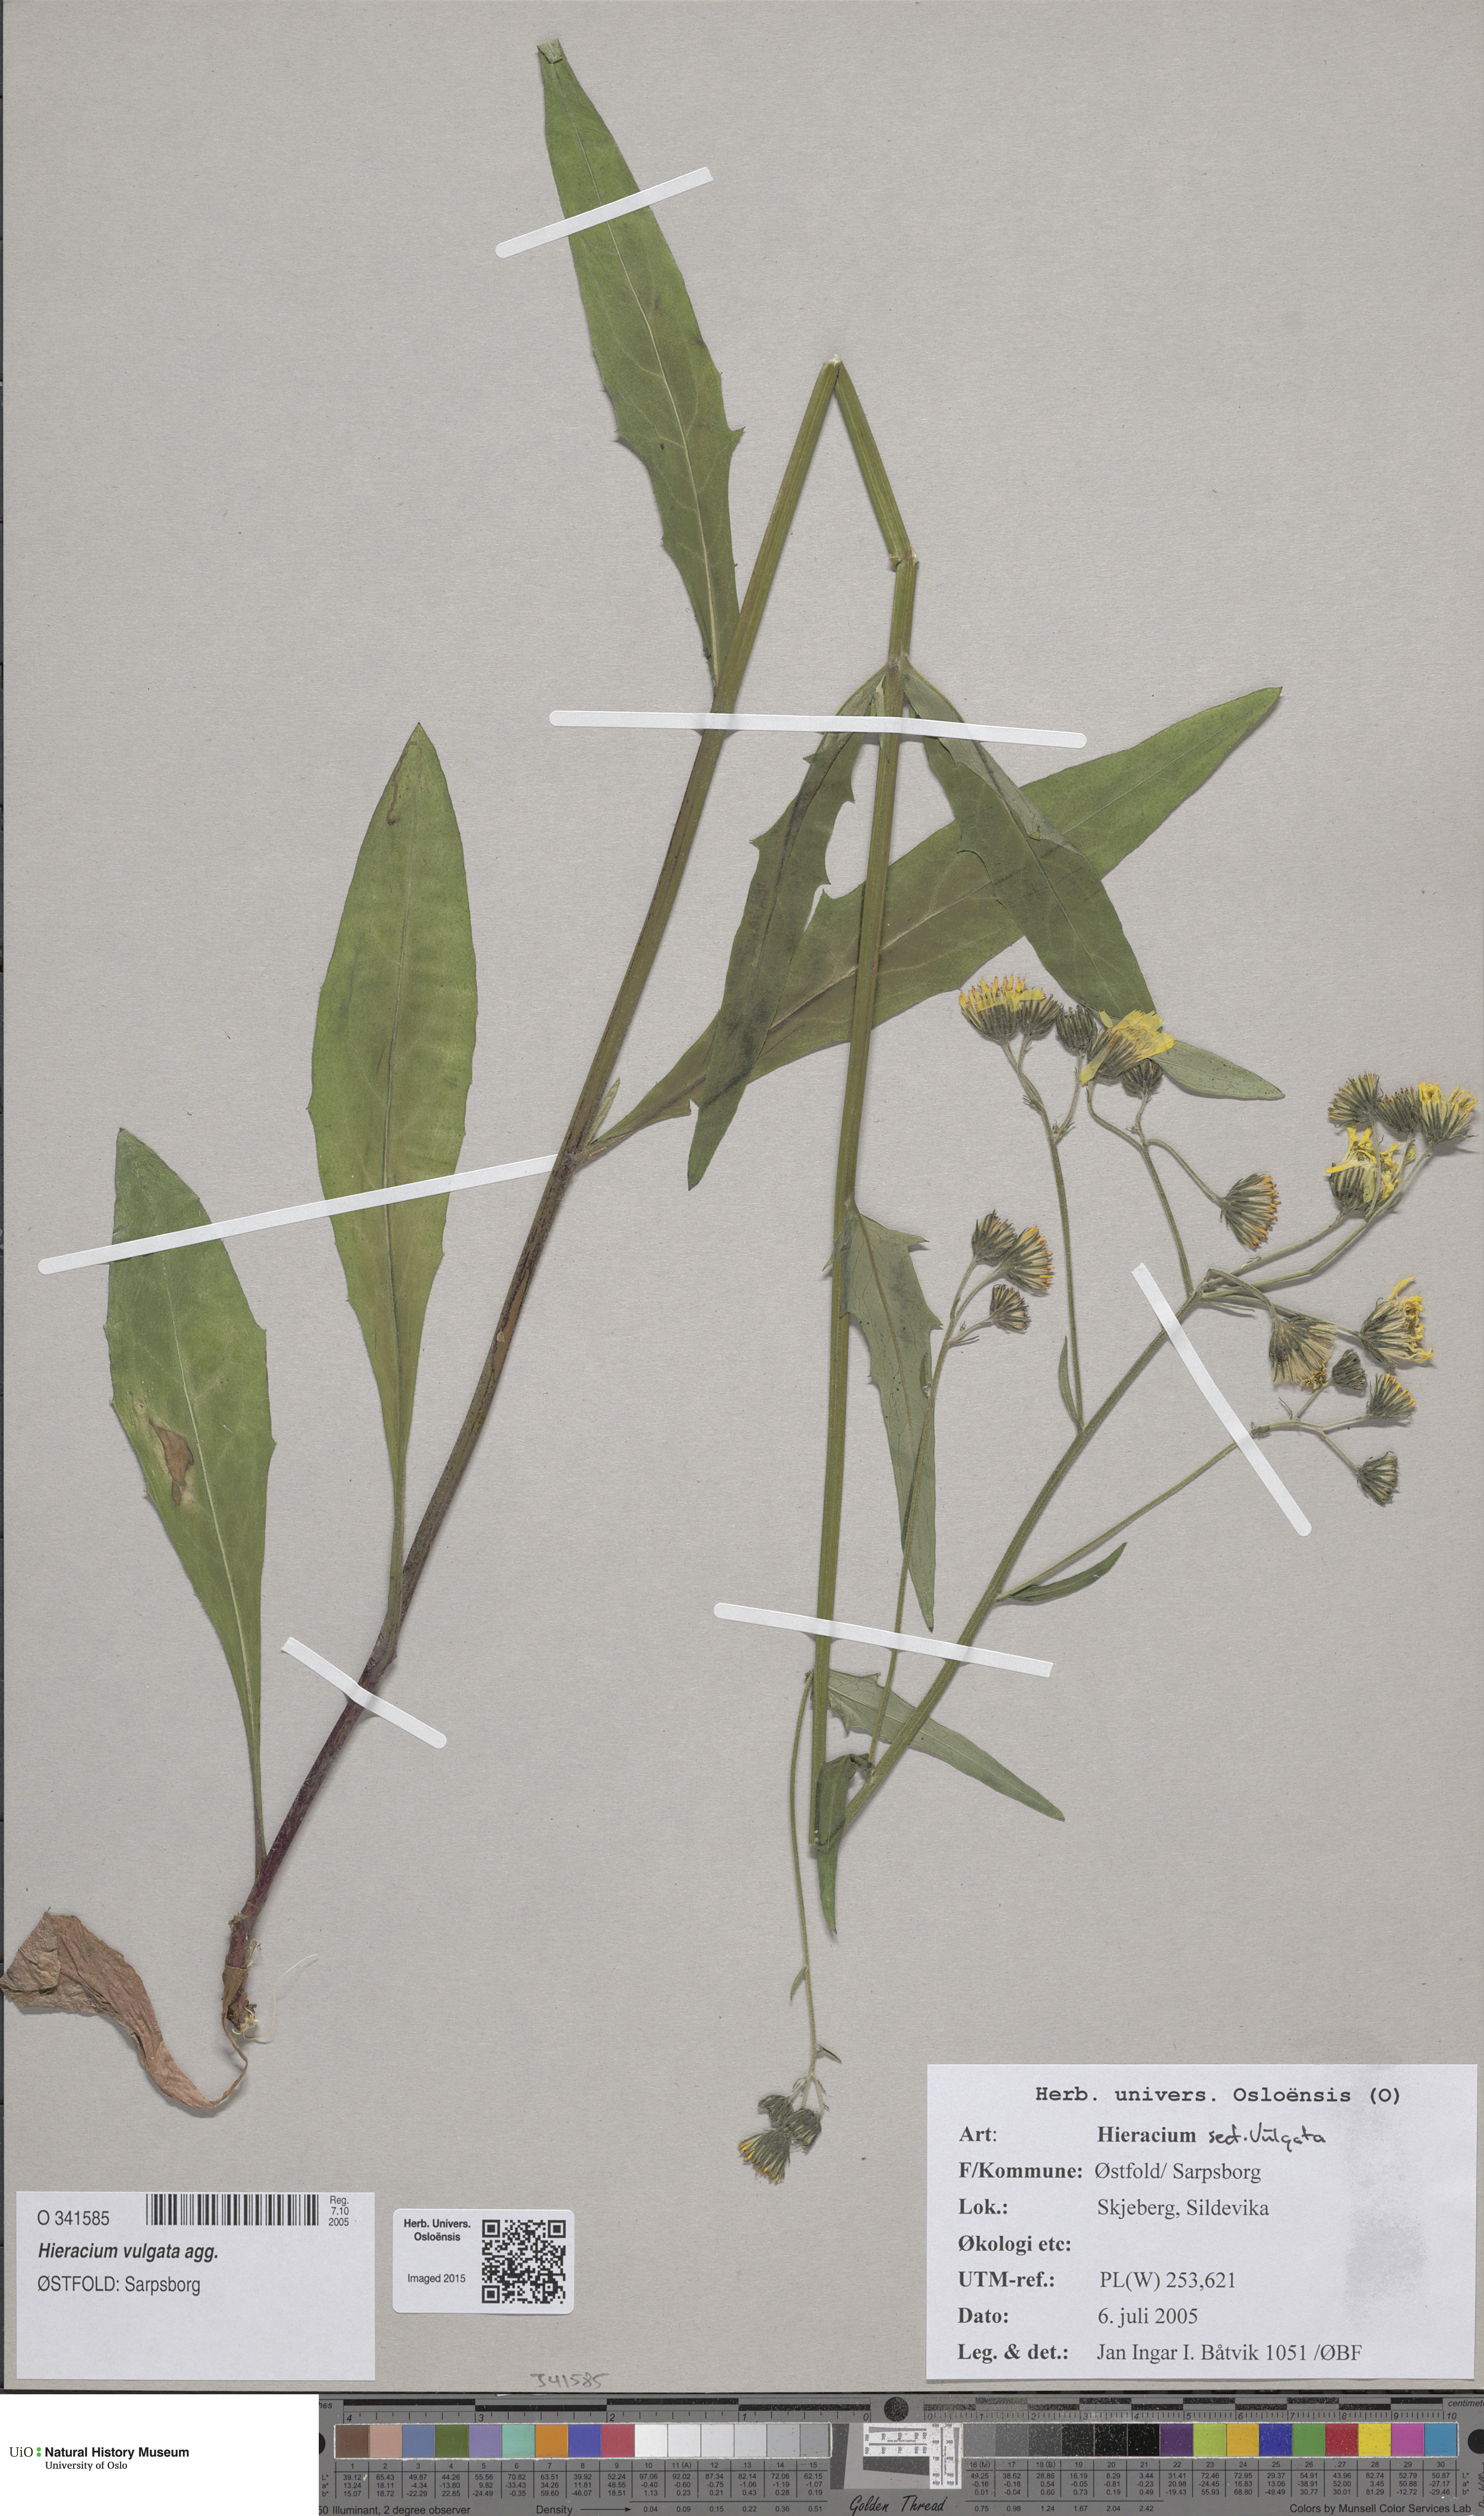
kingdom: Plantae
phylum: Tracheophyta
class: Magnoliopsida
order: Asterales
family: Asteraceae
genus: Hieracium
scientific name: Hieracium vulgatum
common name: Common hawkweed
